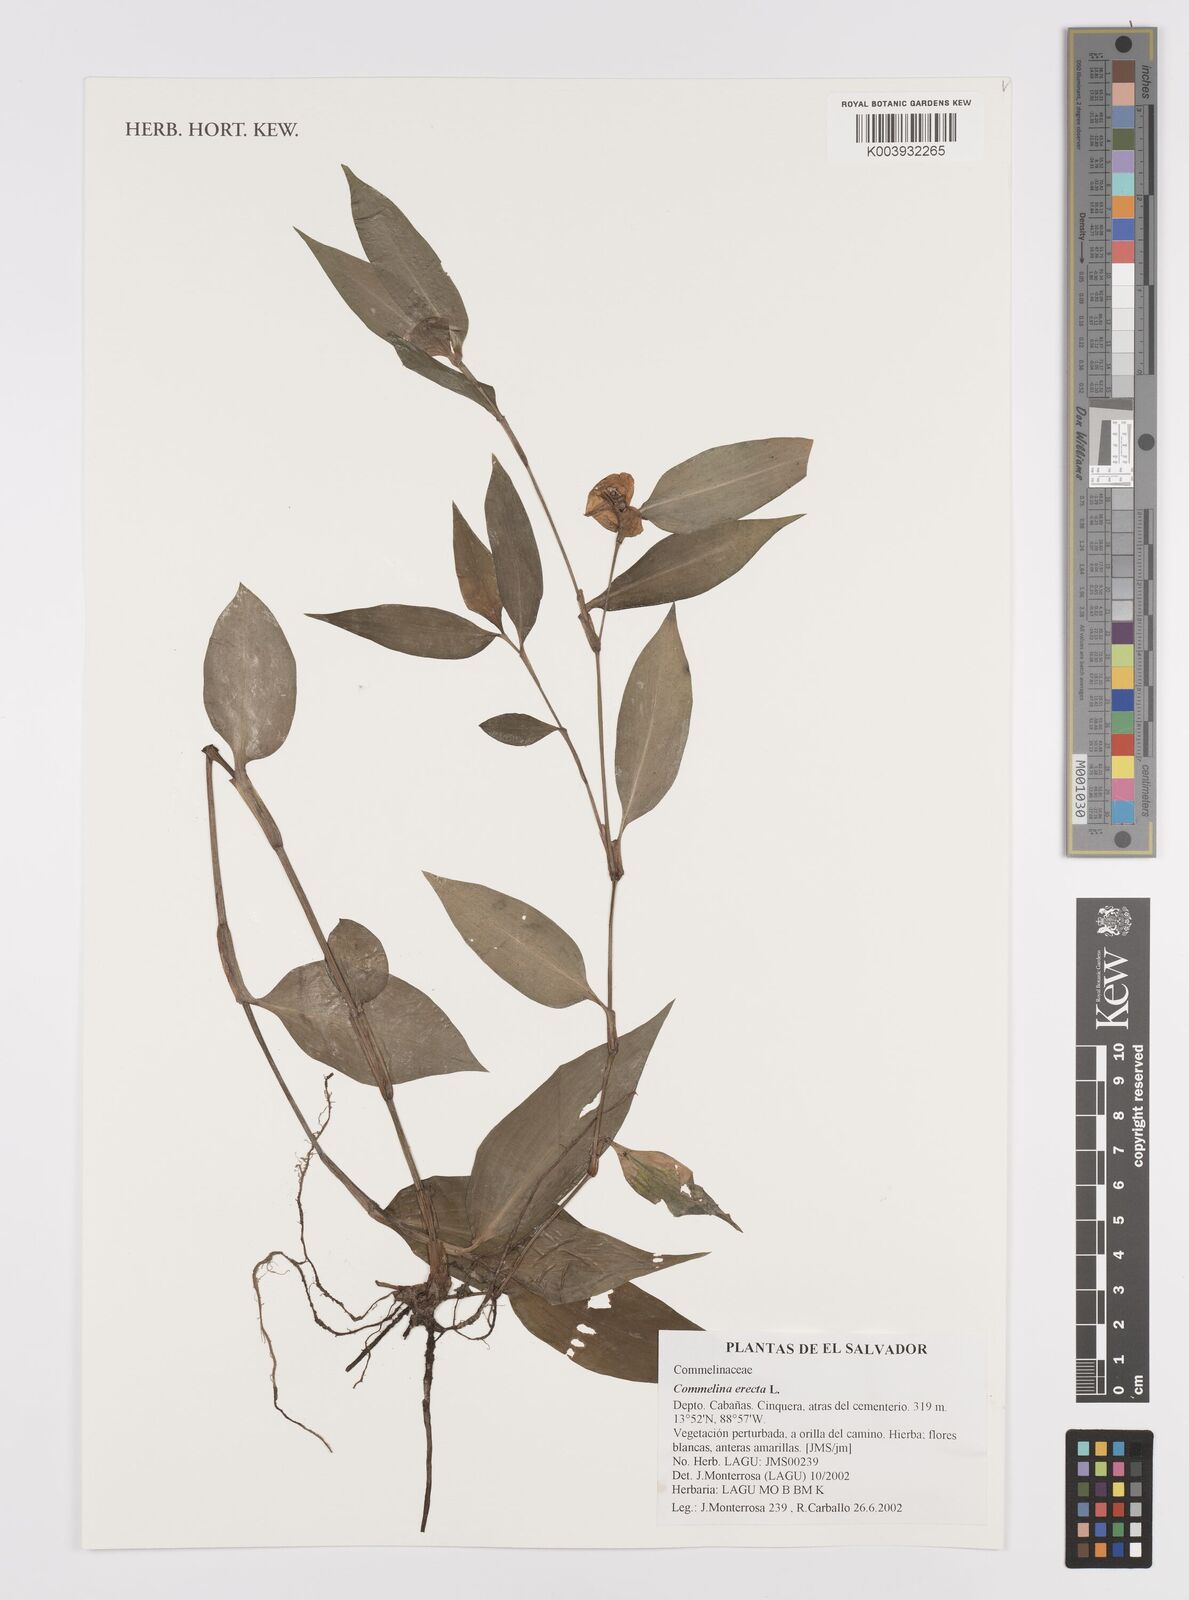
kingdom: Plantae
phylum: Tracheophyta
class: Liliopsida
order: Commelinales
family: Commelinaceae
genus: Commelina
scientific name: Commelina erecta
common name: Blousel blommetjie
